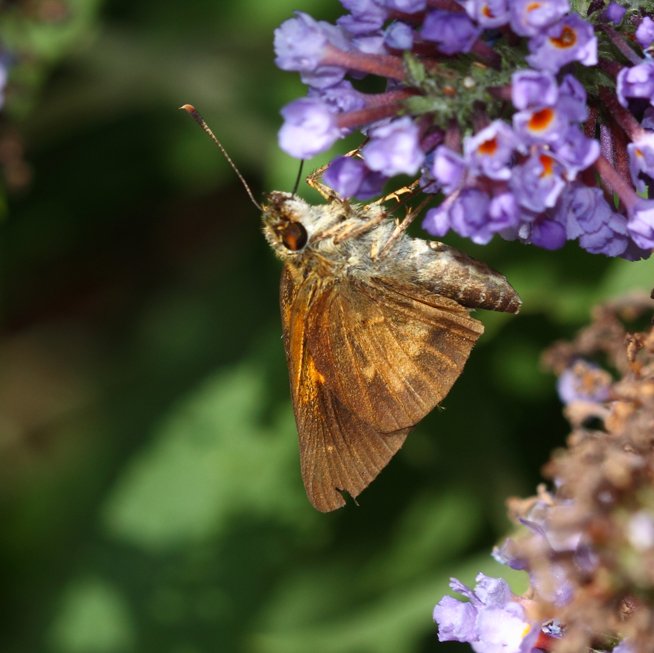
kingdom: Animalia
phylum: Arthropoda
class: Insecta
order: Lepidoptera
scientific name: Lepidoptera
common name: Butterflies
